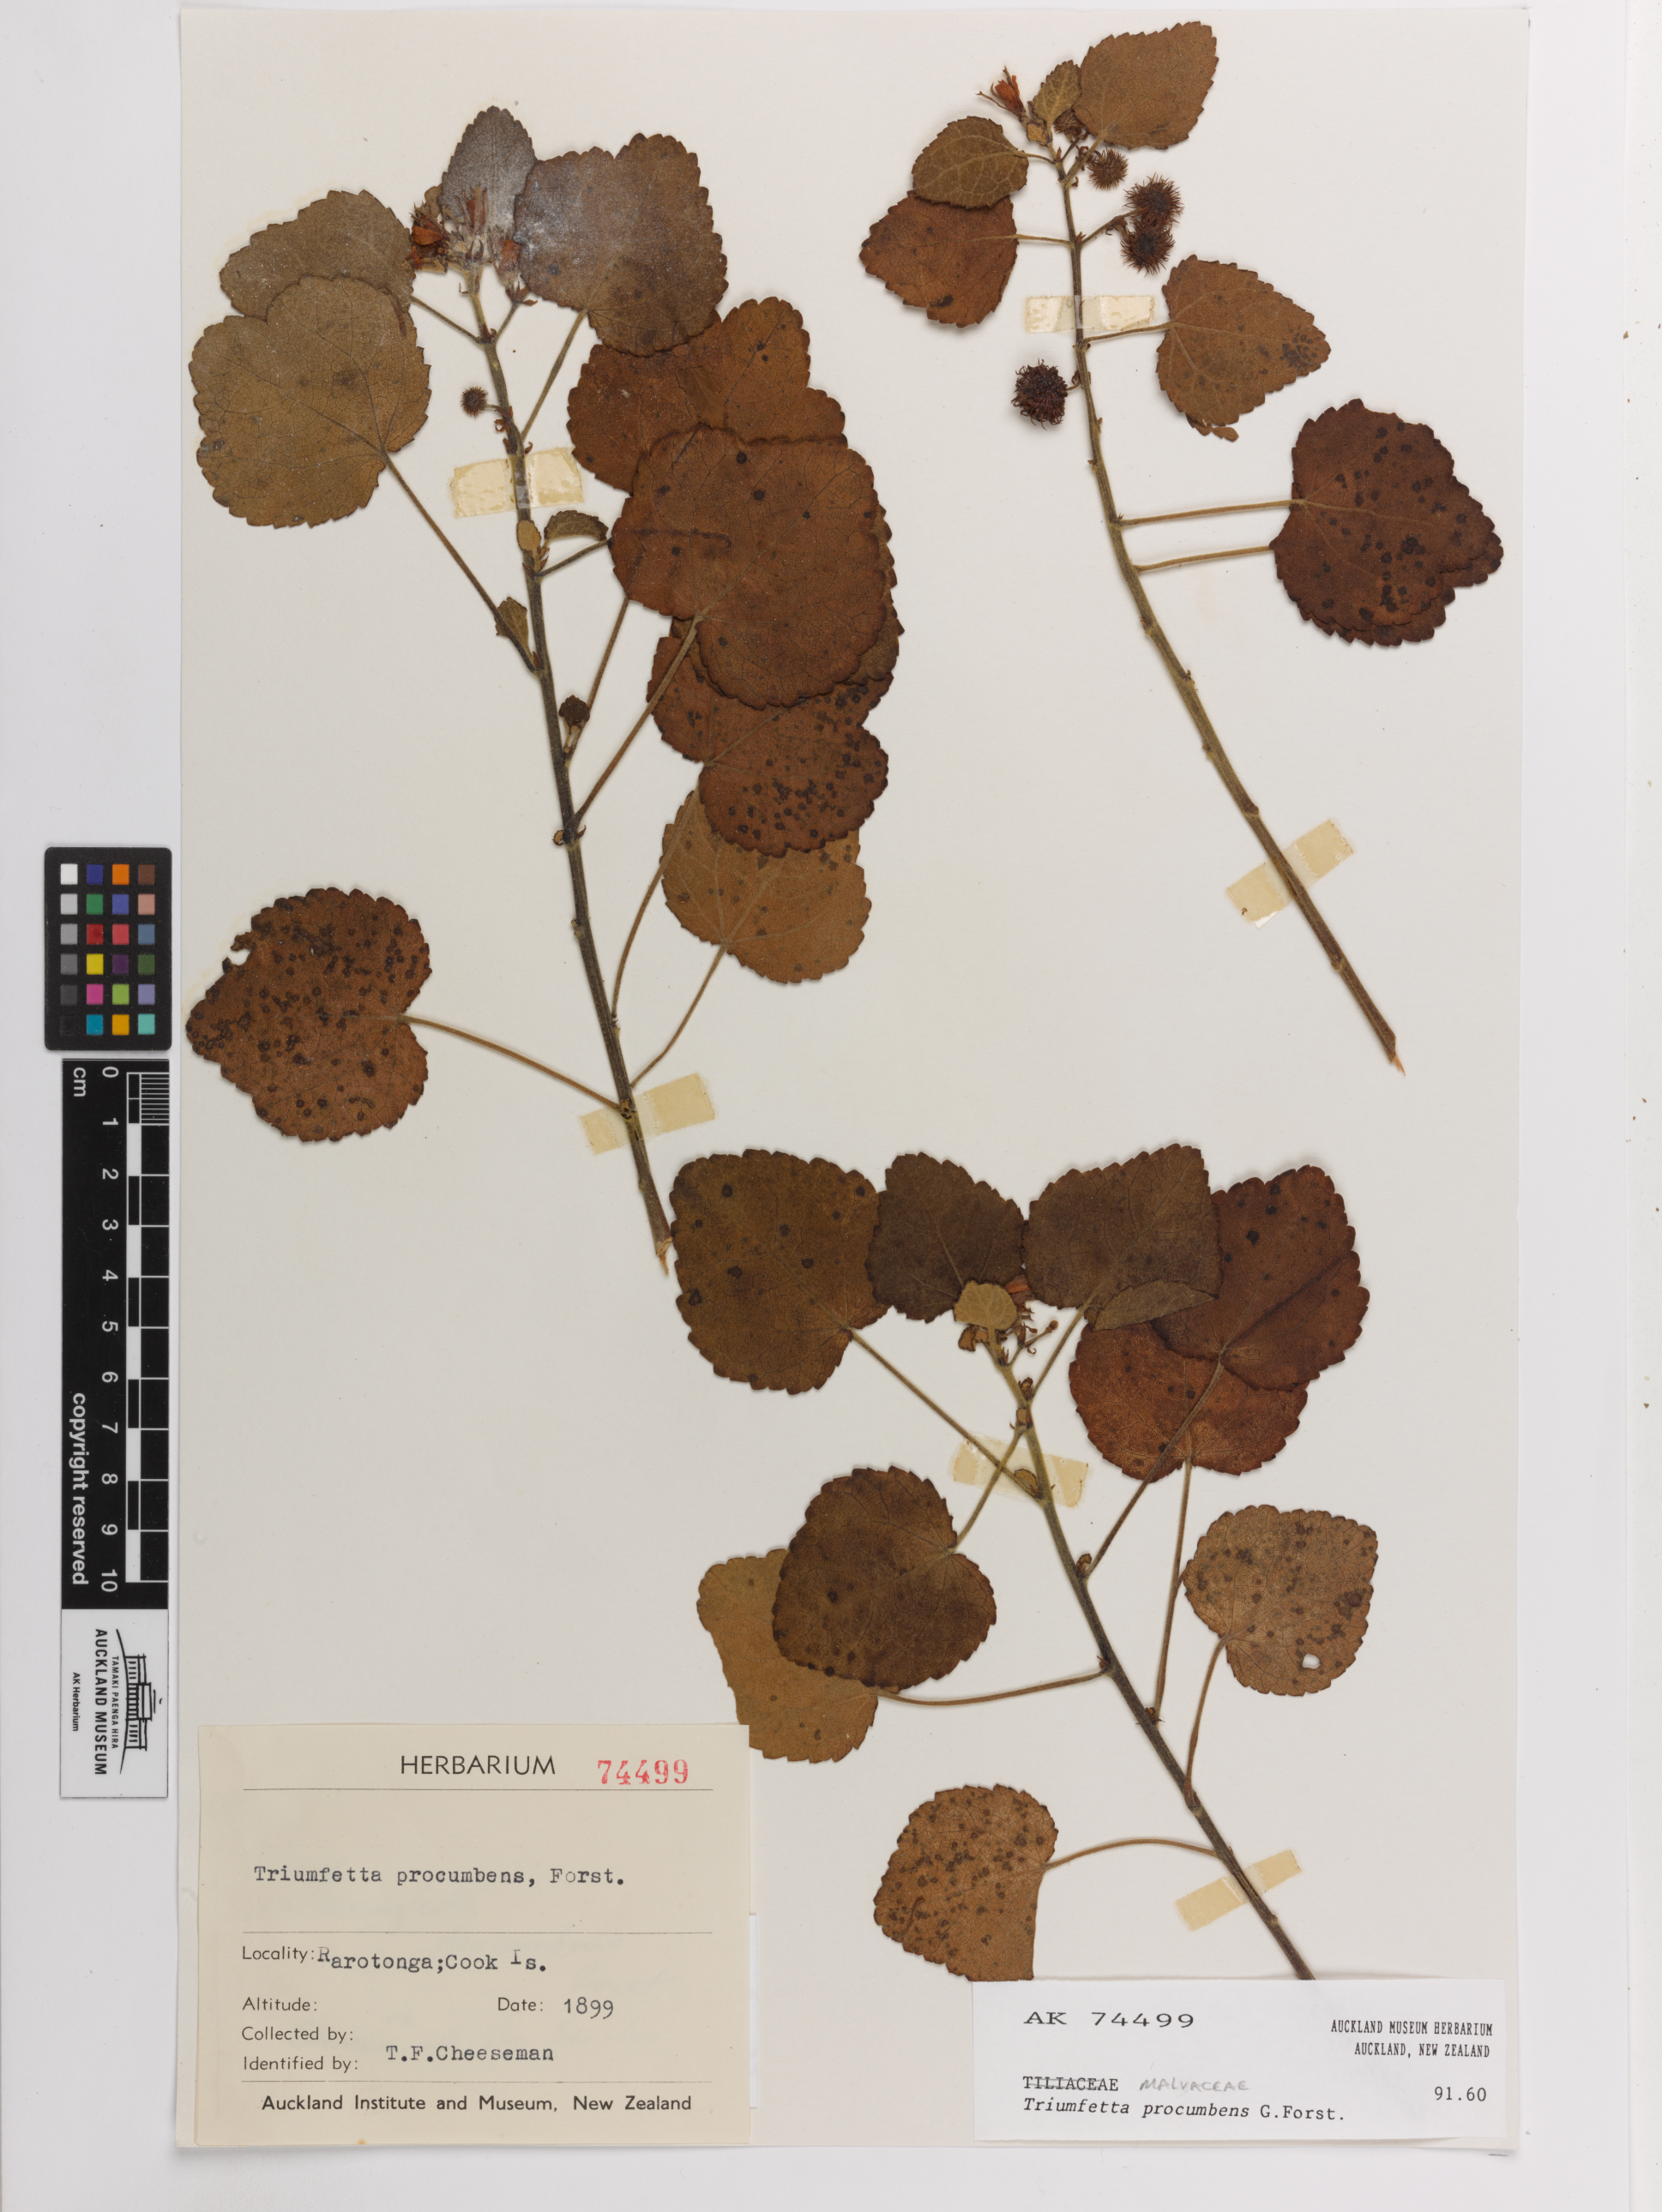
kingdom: Plantae
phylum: Tracheophyta
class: Magnoliopsida
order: Malvales
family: Malvaceae
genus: Triumfetta
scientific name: Triumfetta procumbens
